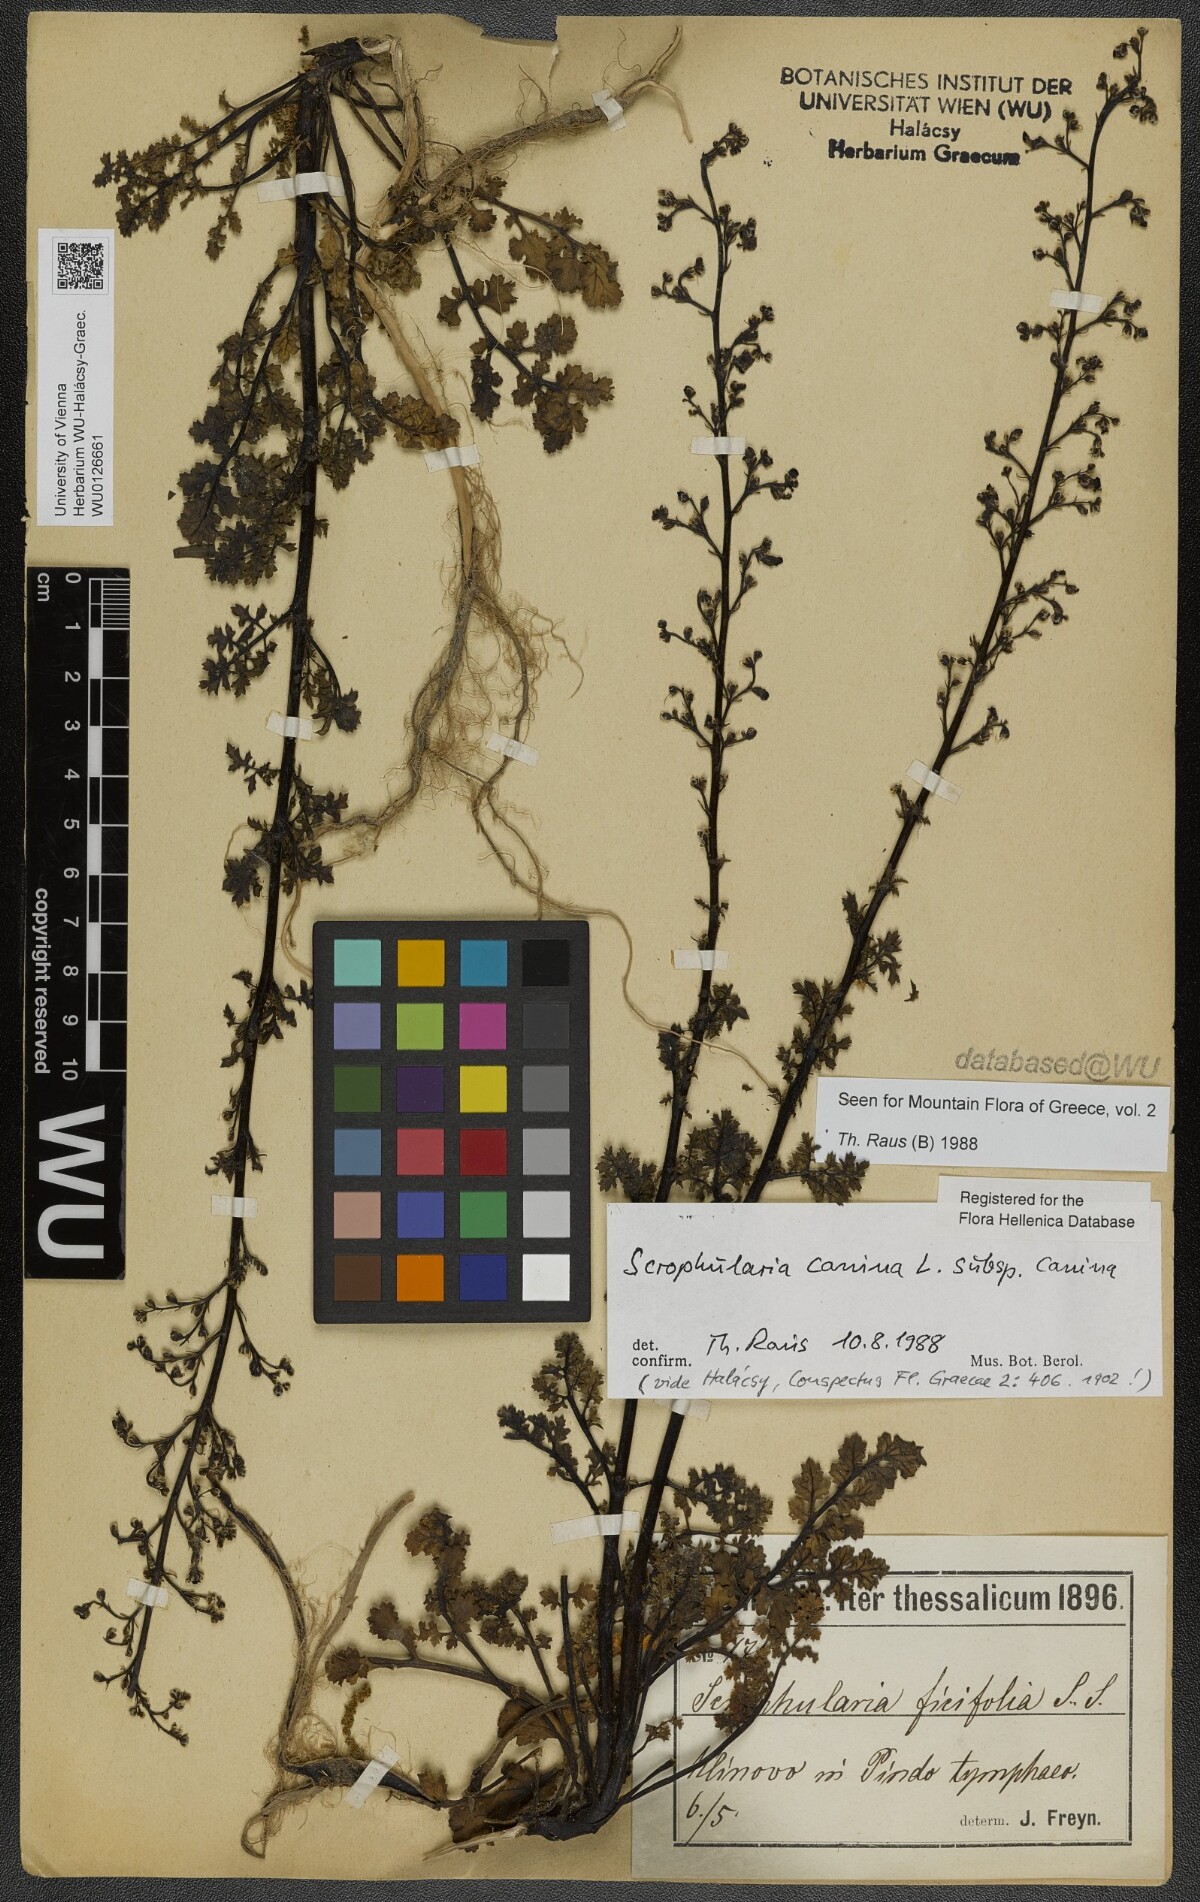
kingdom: Plantae
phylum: Tracheophyta
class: Magnoliopsida
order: Lamiales
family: Scrophulariaceae
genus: Scrophularia
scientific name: Scrophularia canina
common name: French figwort
